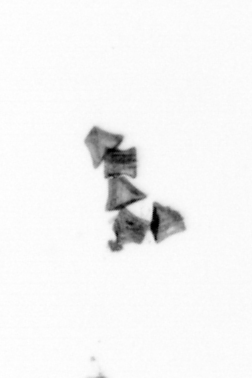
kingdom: Chromista
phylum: Ochrophyta
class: Bacillariophyceae
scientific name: Bacillariophyceae
